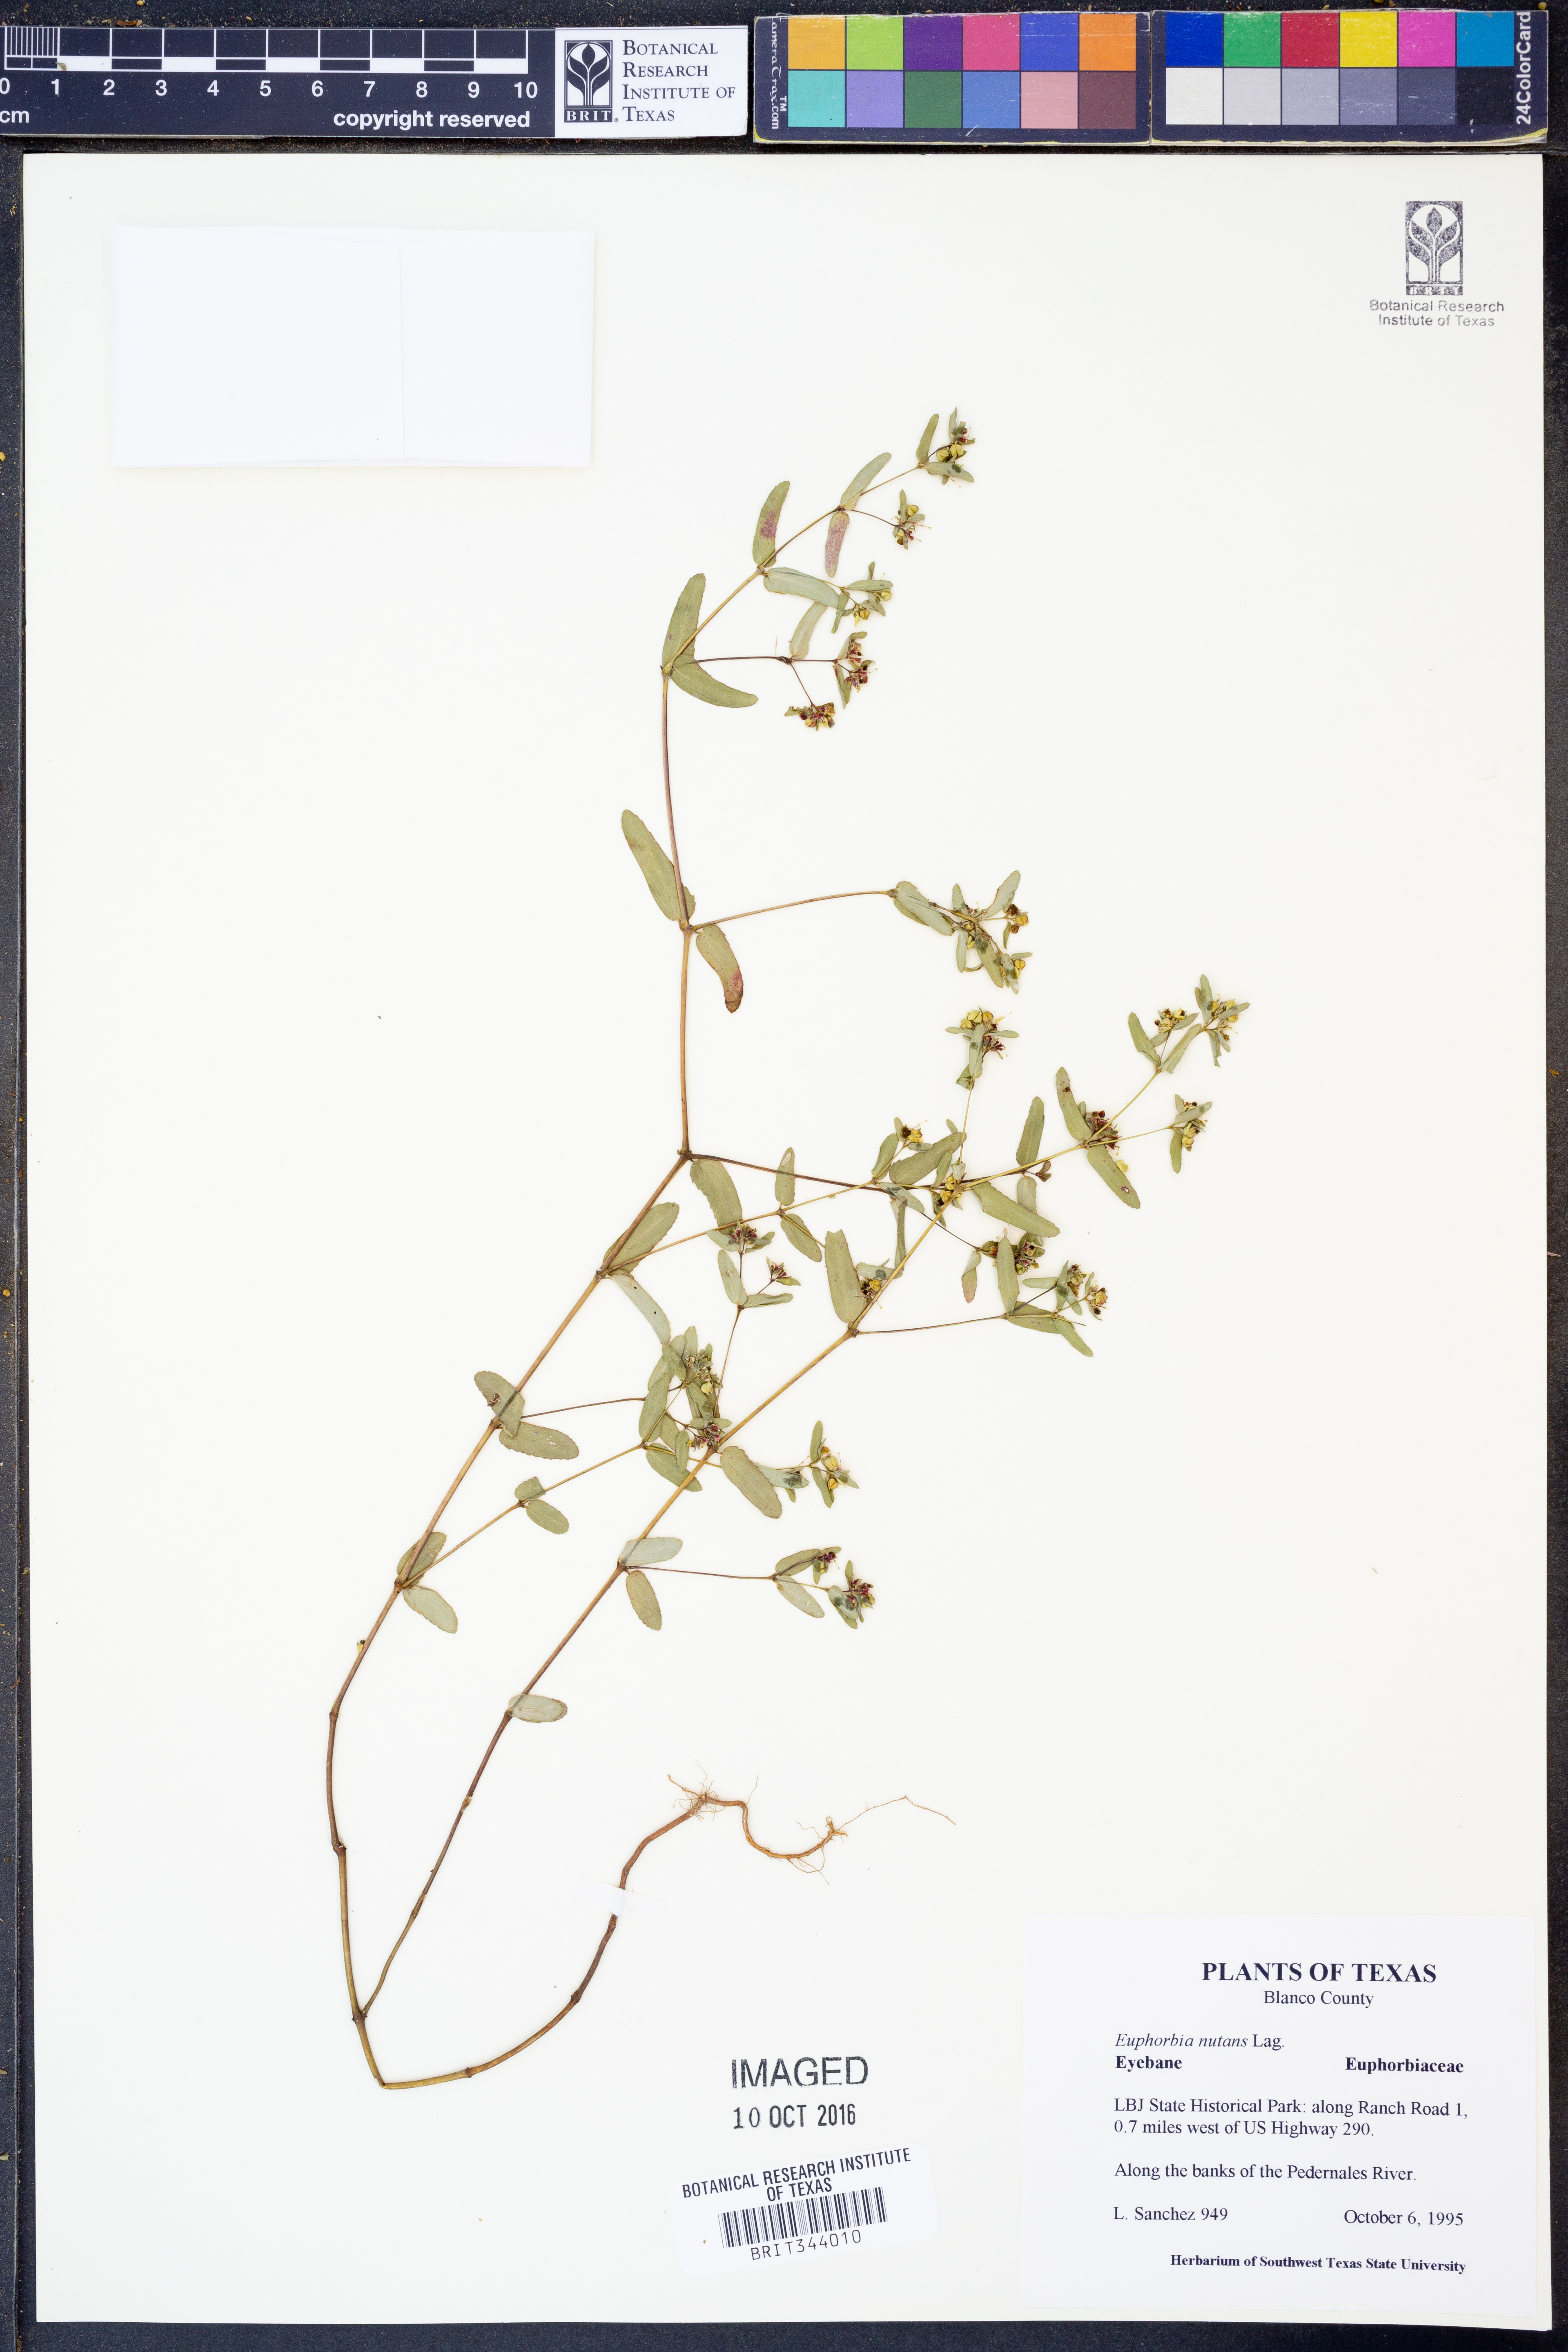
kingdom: Plantae
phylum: Tracheophyta
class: Magnoliopsida
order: Malpighiales
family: Euphorbiaceae
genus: Euphorbia
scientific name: Euphorbia nutans
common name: Eyebane
